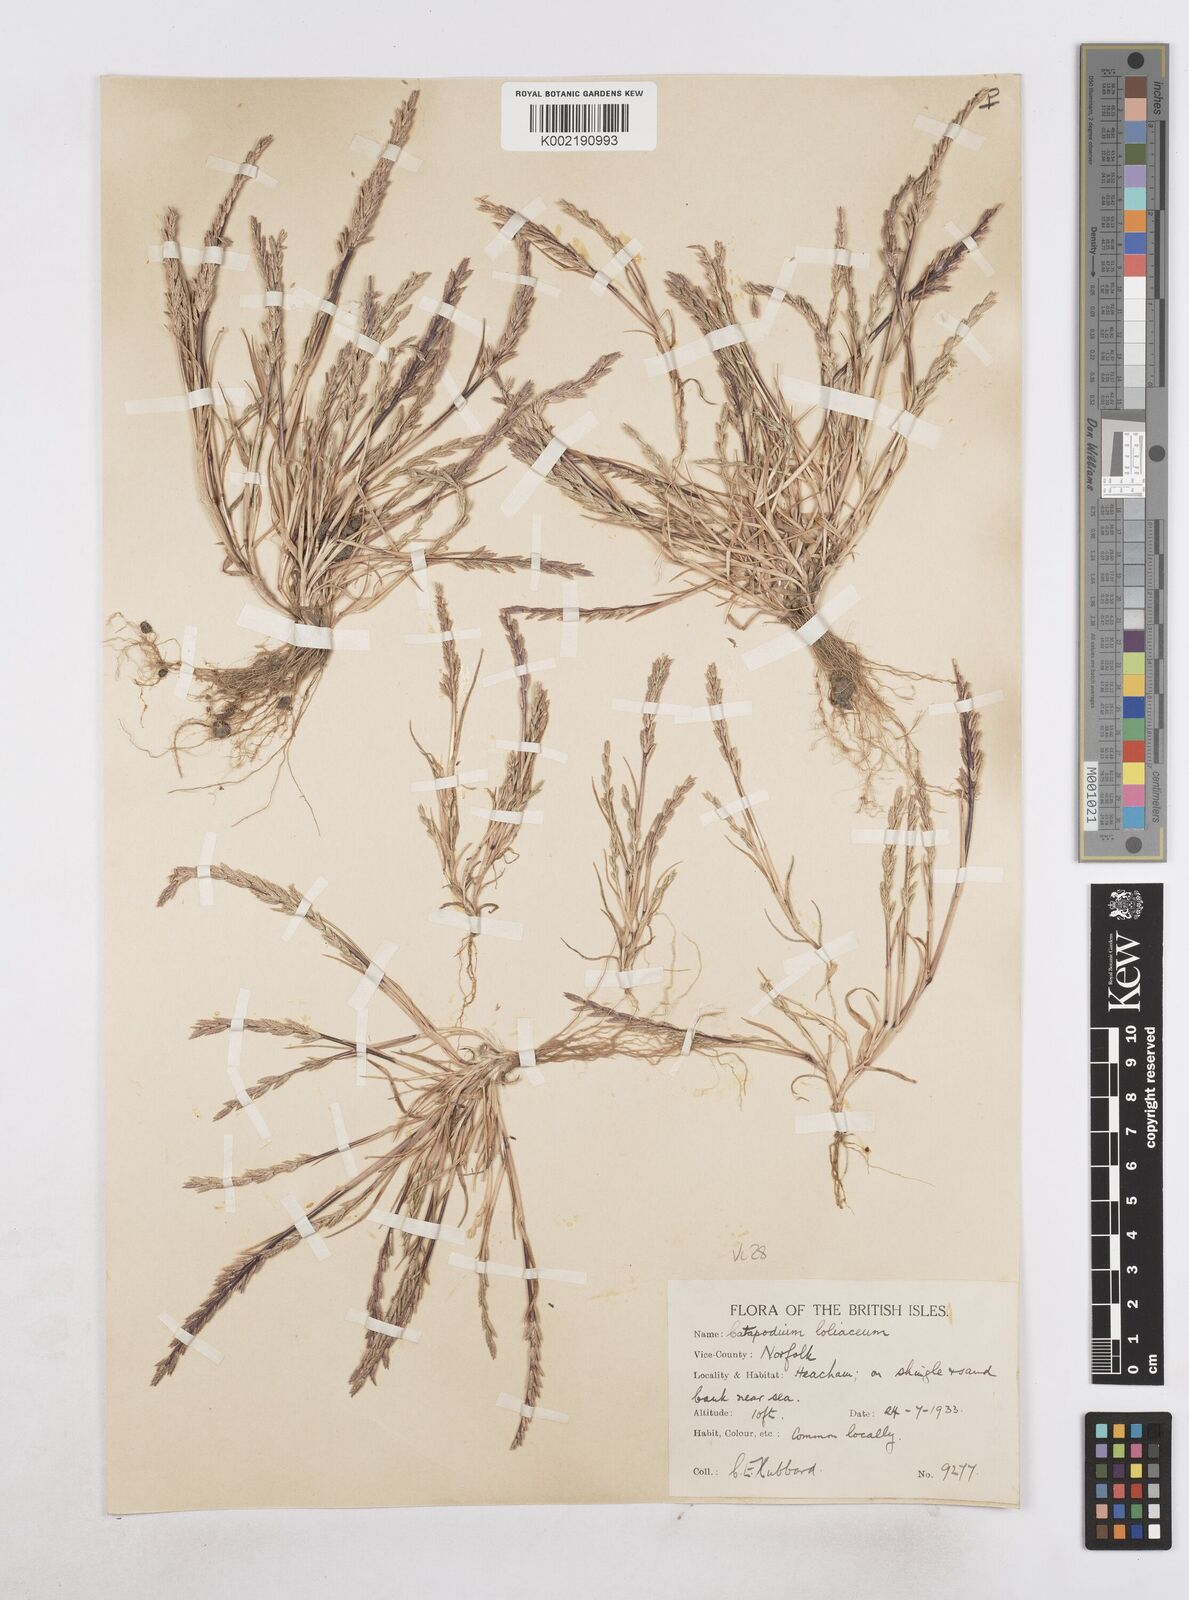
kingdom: Plantae
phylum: Tracheophyta
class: Liliopsida
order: Poales
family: Poaceae
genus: Catapodium
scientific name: Catapodium marinum
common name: Sea fern-grass
